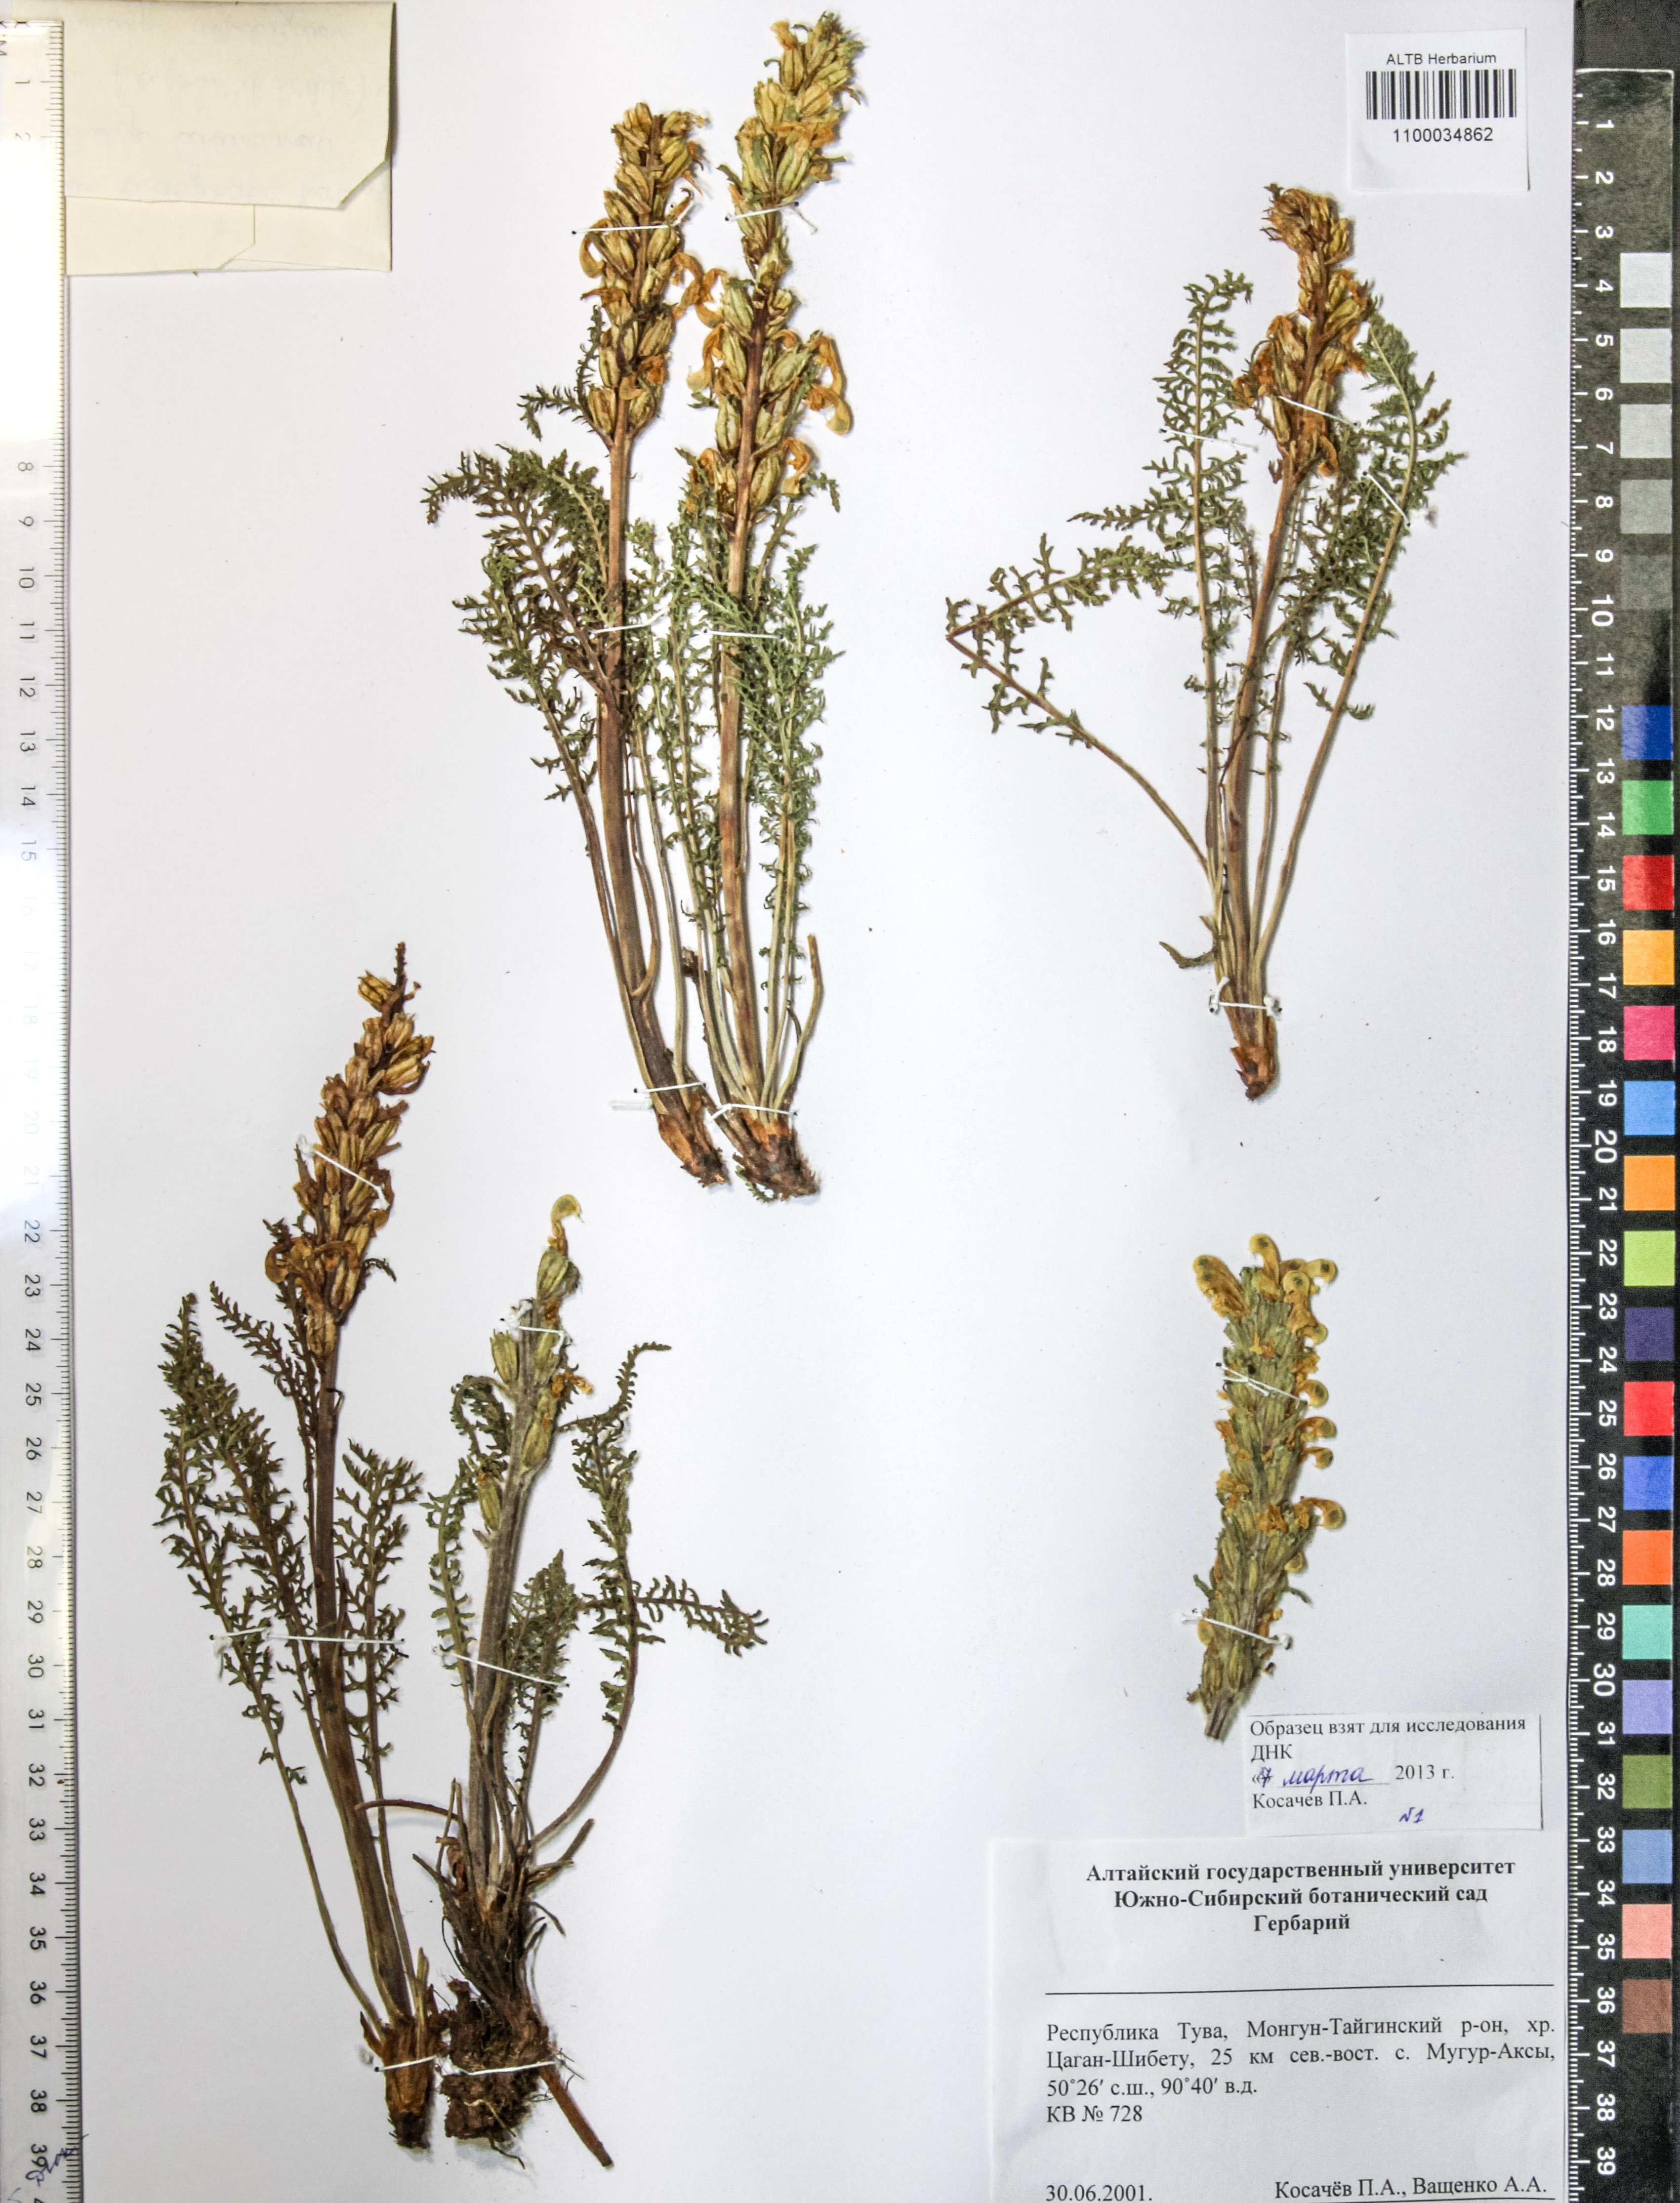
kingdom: Plantae
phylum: Tracheophyta
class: Magnoliopsida
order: Lamiales
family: Orobanchaceae
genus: Pedicularis
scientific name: Pedicularis compacta
